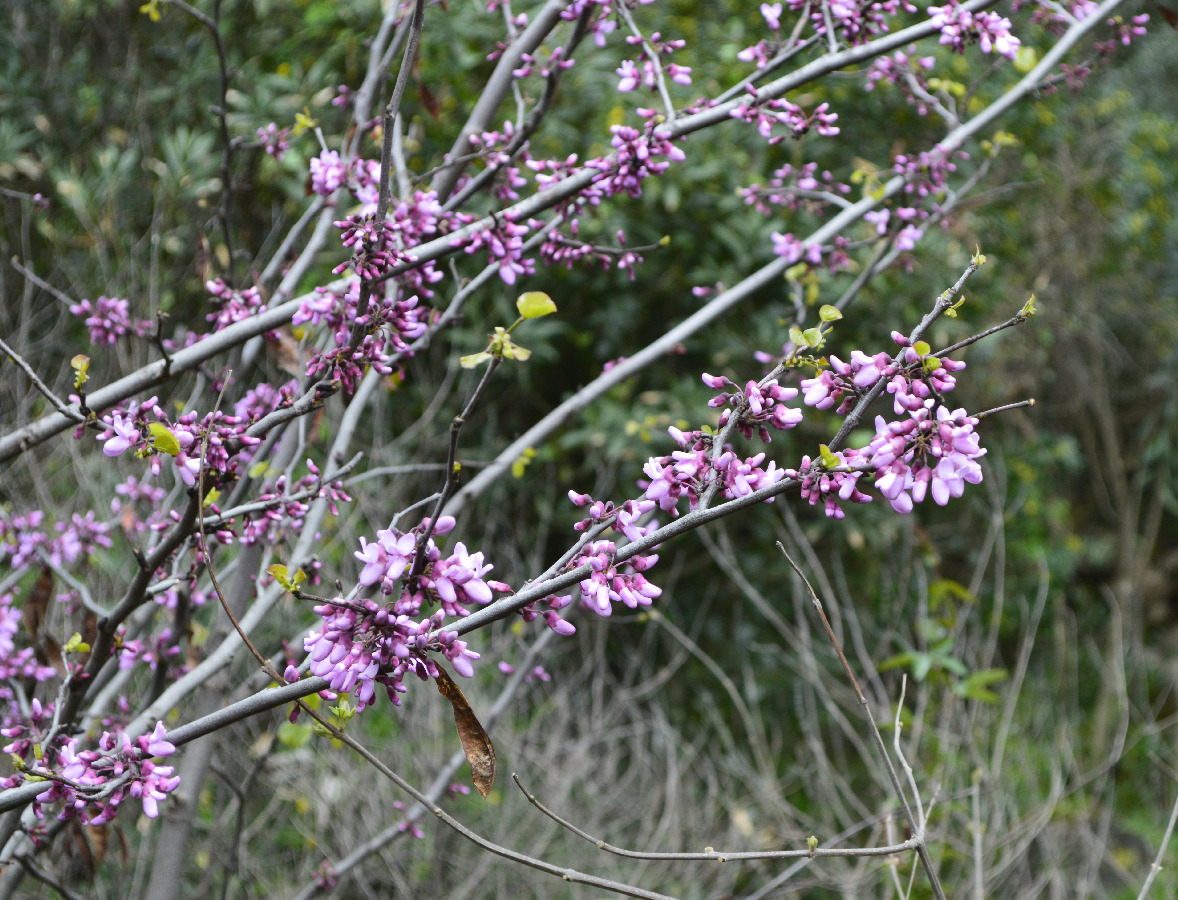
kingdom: Plantae
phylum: Tracheophyta
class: Magnoliopsida
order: Fabales
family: Fabaceae
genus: Cercis
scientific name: Cercis siliquastrum
